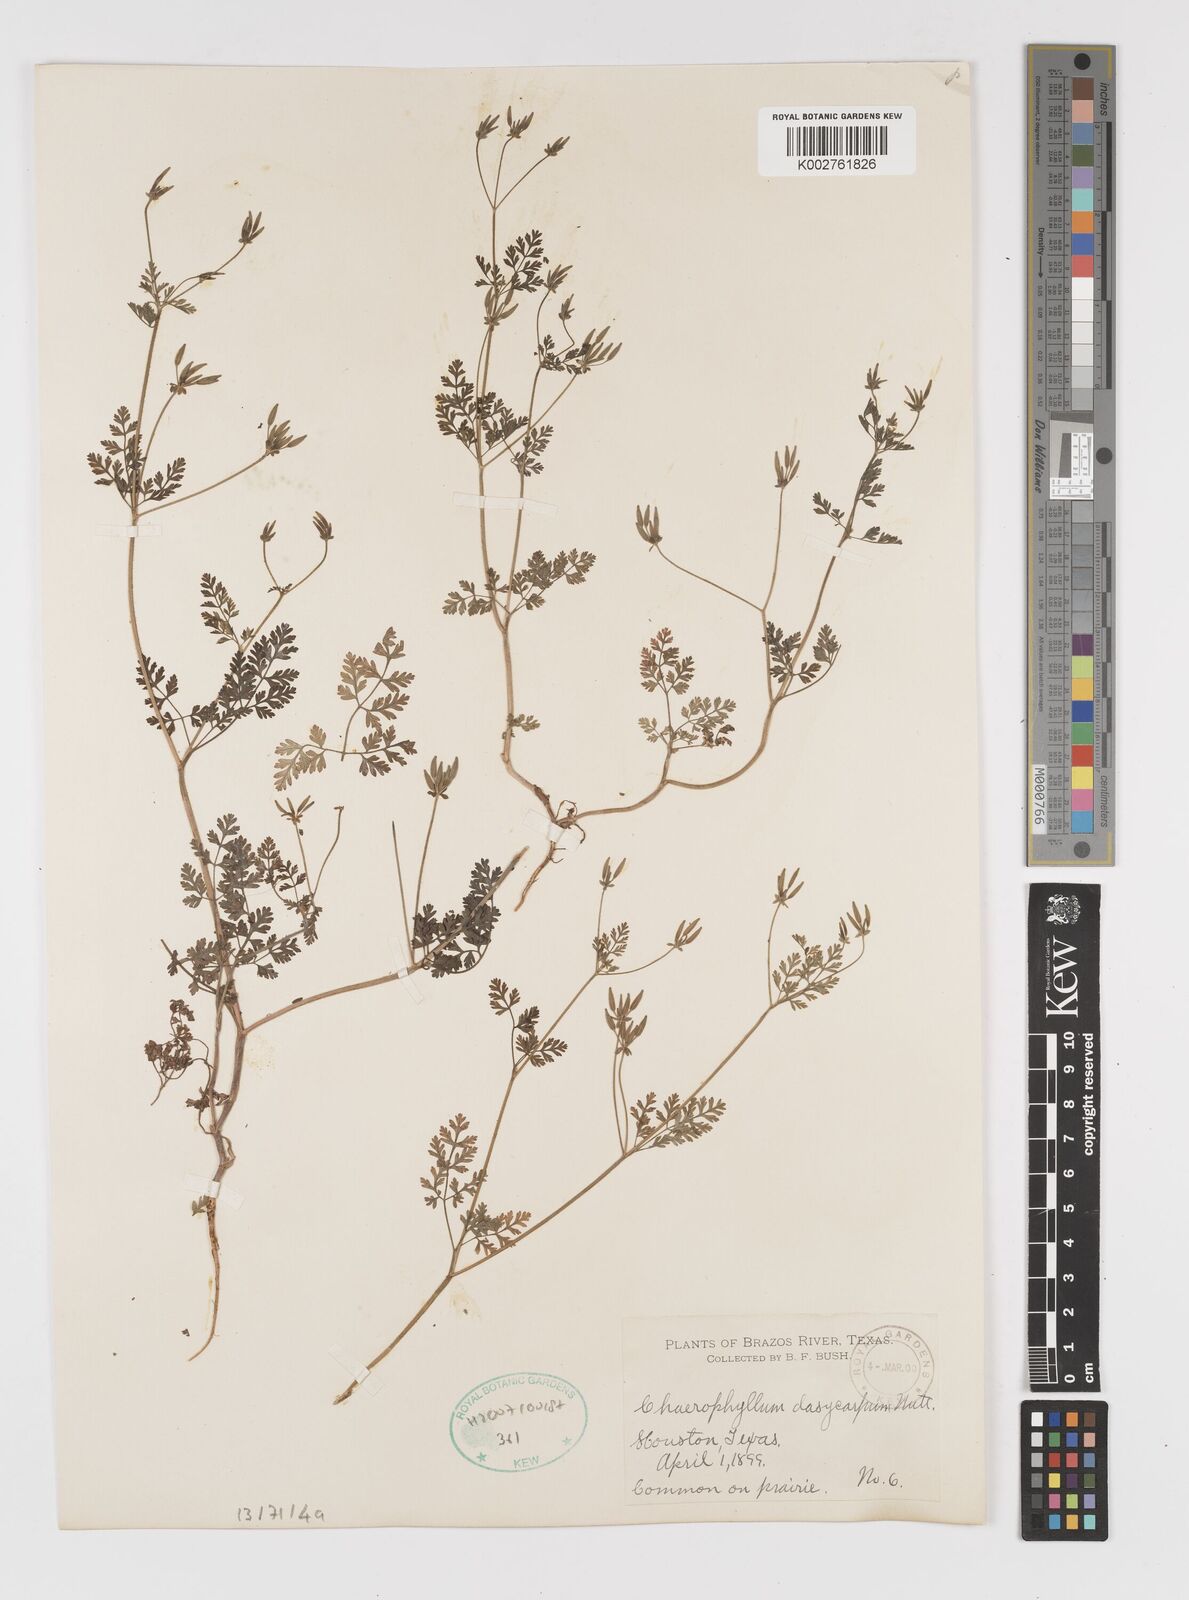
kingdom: Plantae
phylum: Tracheophyta
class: Magnoliopsida
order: Apiales
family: Apiaceae
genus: Chaerophyllum
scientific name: Chaerophyllum dasycarpum
